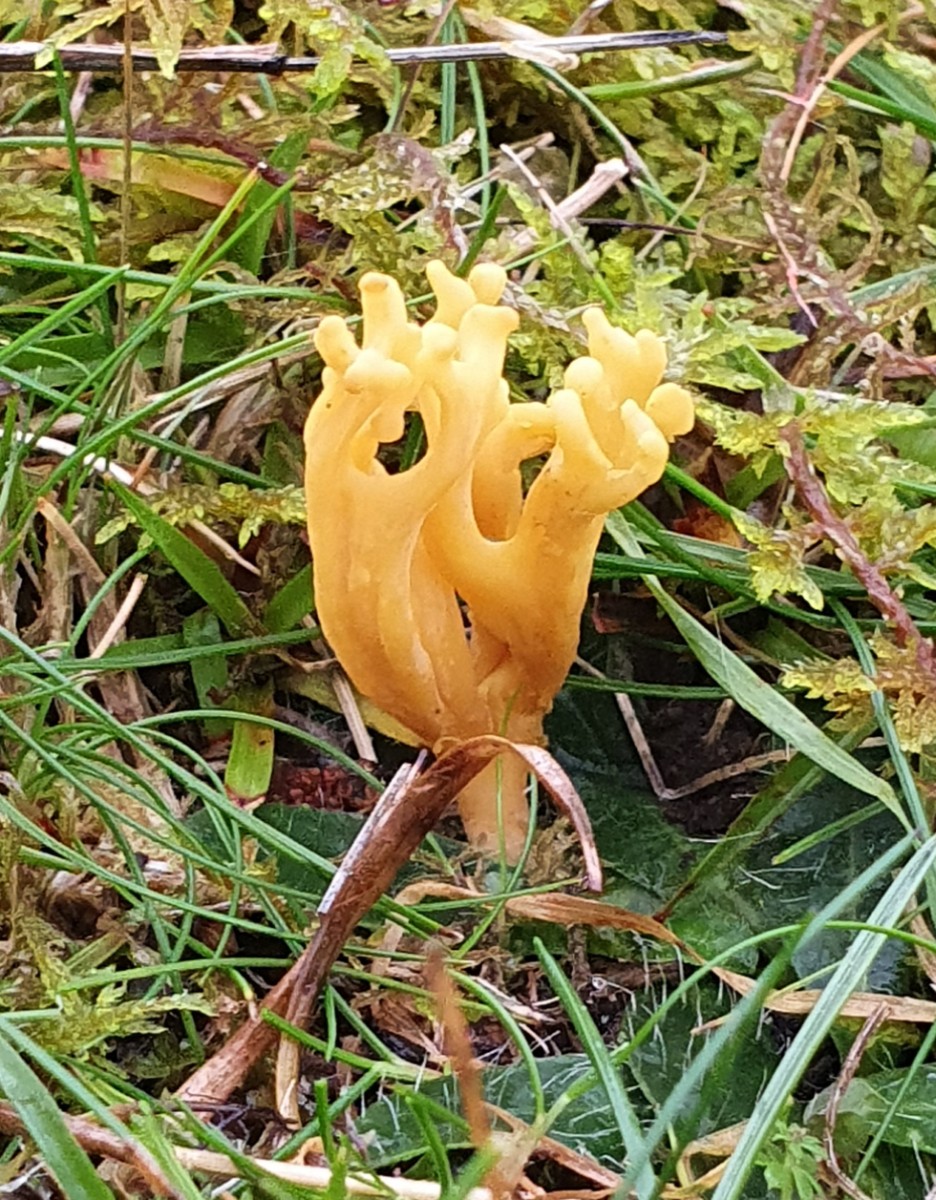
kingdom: Fungi
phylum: Basidiomycota
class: Agaricomycetes
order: Agaricales
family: Clavariaceae
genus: Clavulinopsis
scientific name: Clavulinopsis corniculata
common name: eng-køllesvamp
